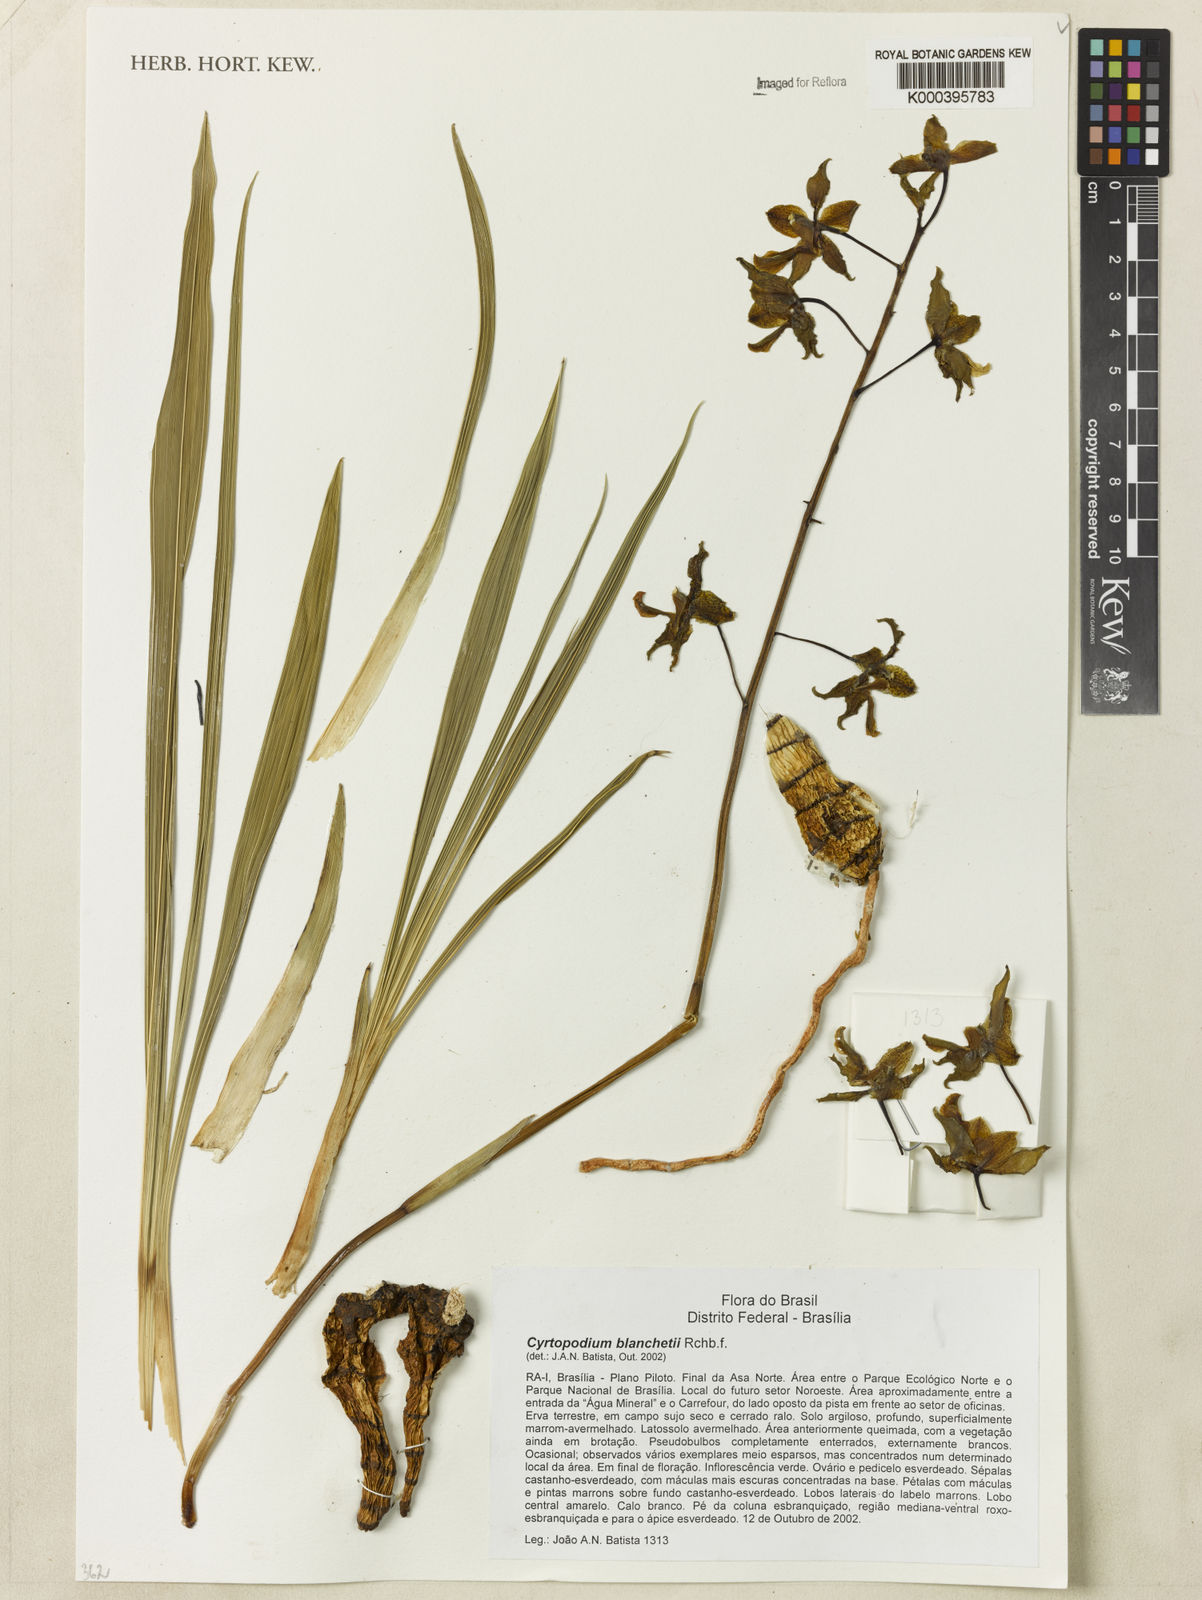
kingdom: Plantae
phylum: Tracheophyta
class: Liliopsida
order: Asparagales
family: Orchidaceae
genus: Cyrtopodium
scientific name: Cyrtopodium blanchetii
